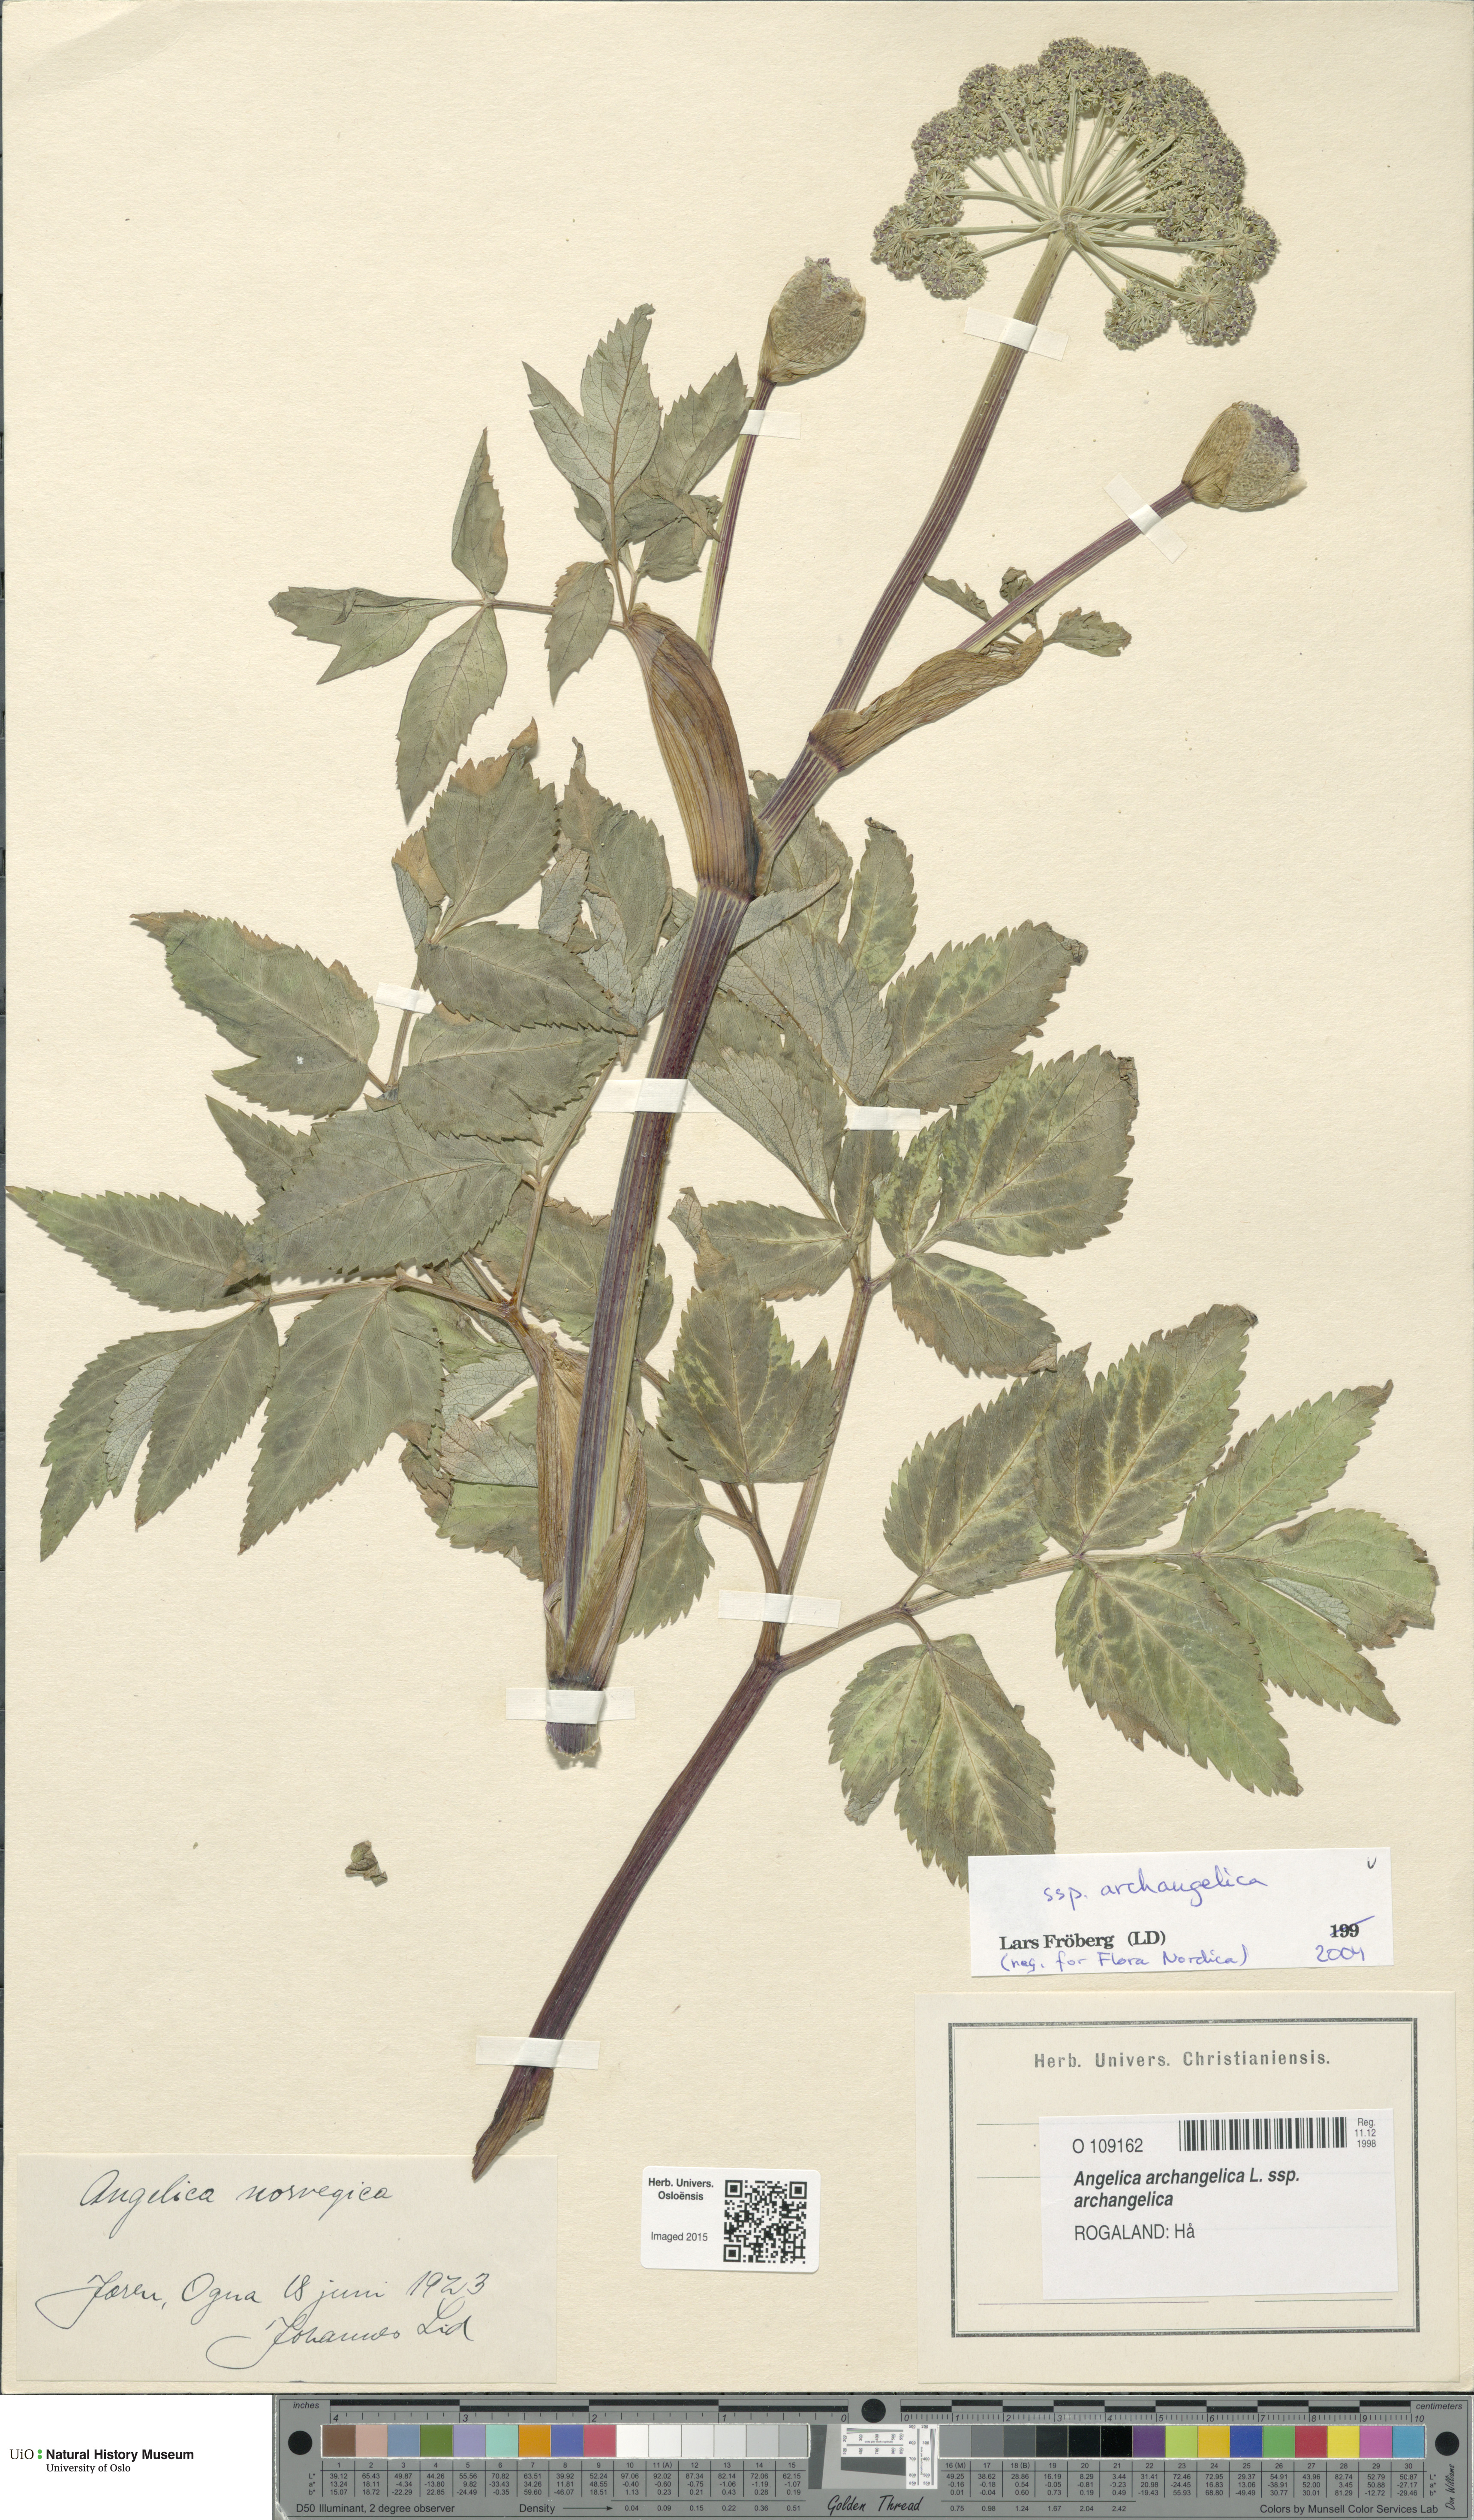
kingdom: Plantae
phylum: Tracheophyta
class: Magnoliopsida
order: Apiales
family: Apiaceae
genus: Angelica
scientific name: Angelica archangelica
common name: Garden angelica
